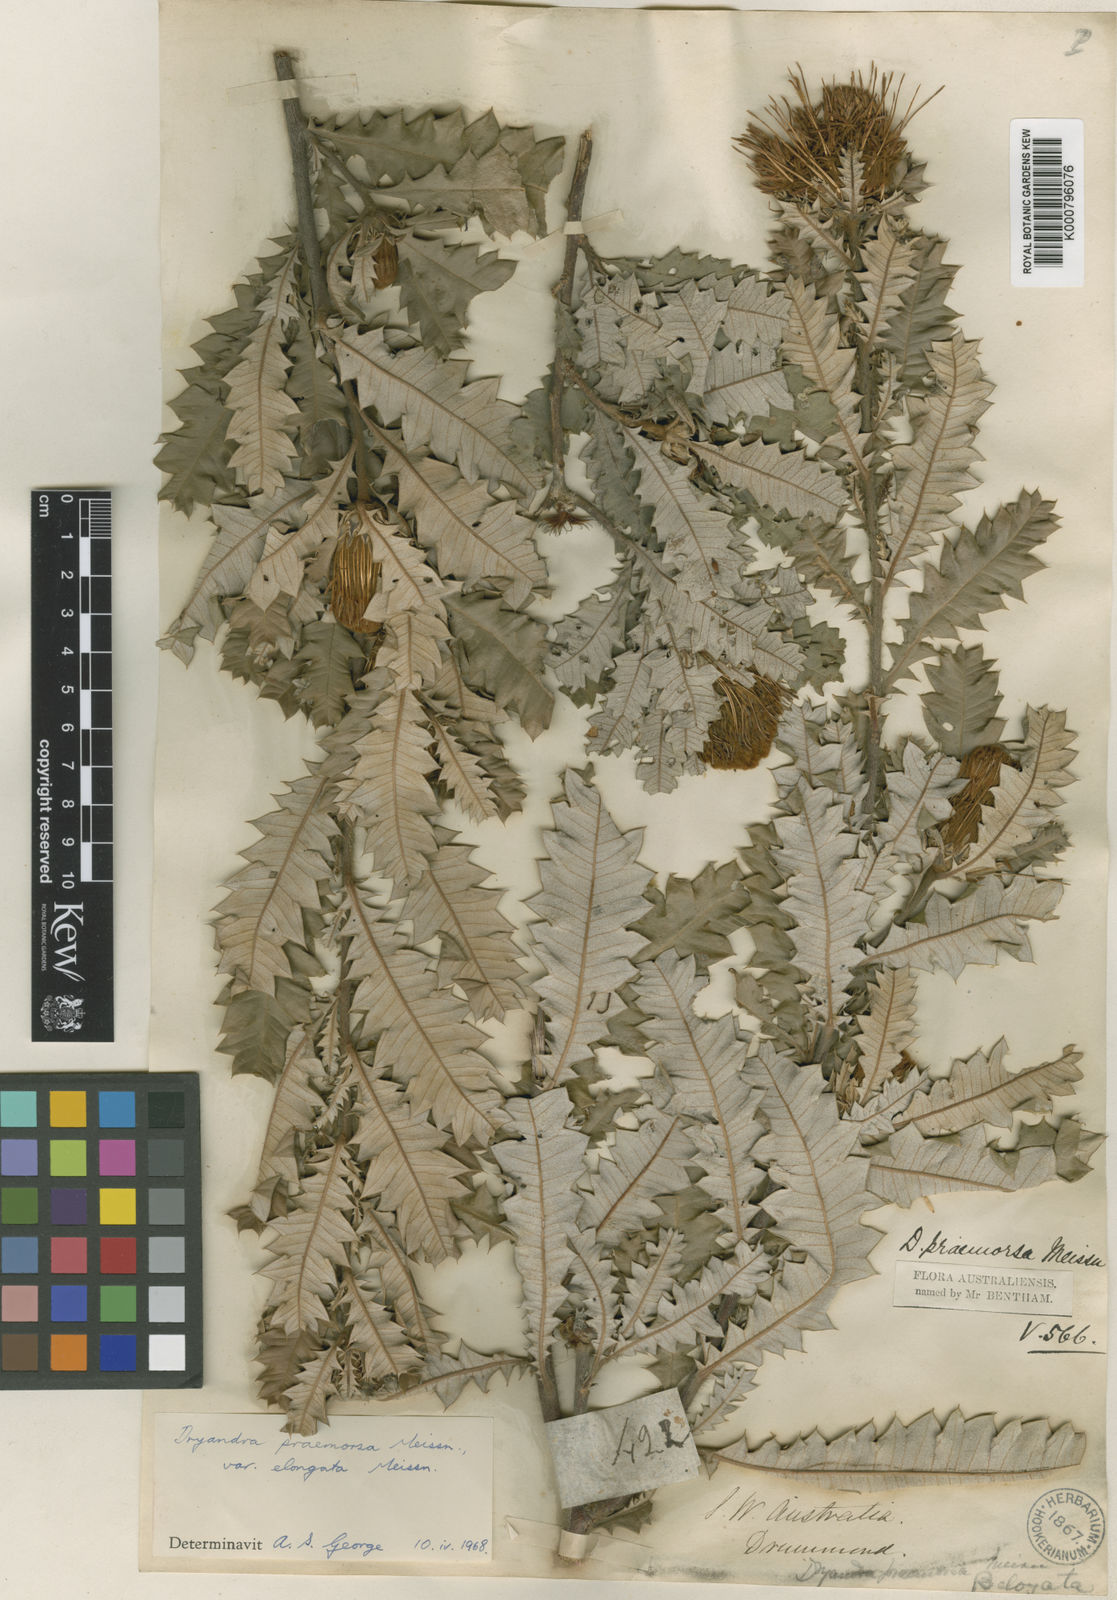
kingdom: Plantae
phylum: Tracheophyta
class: Magnoliopsida
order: Proteales
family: Proteaceae
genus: Banksia
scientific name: Banksia undata
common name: Cut-leaf dryandra
